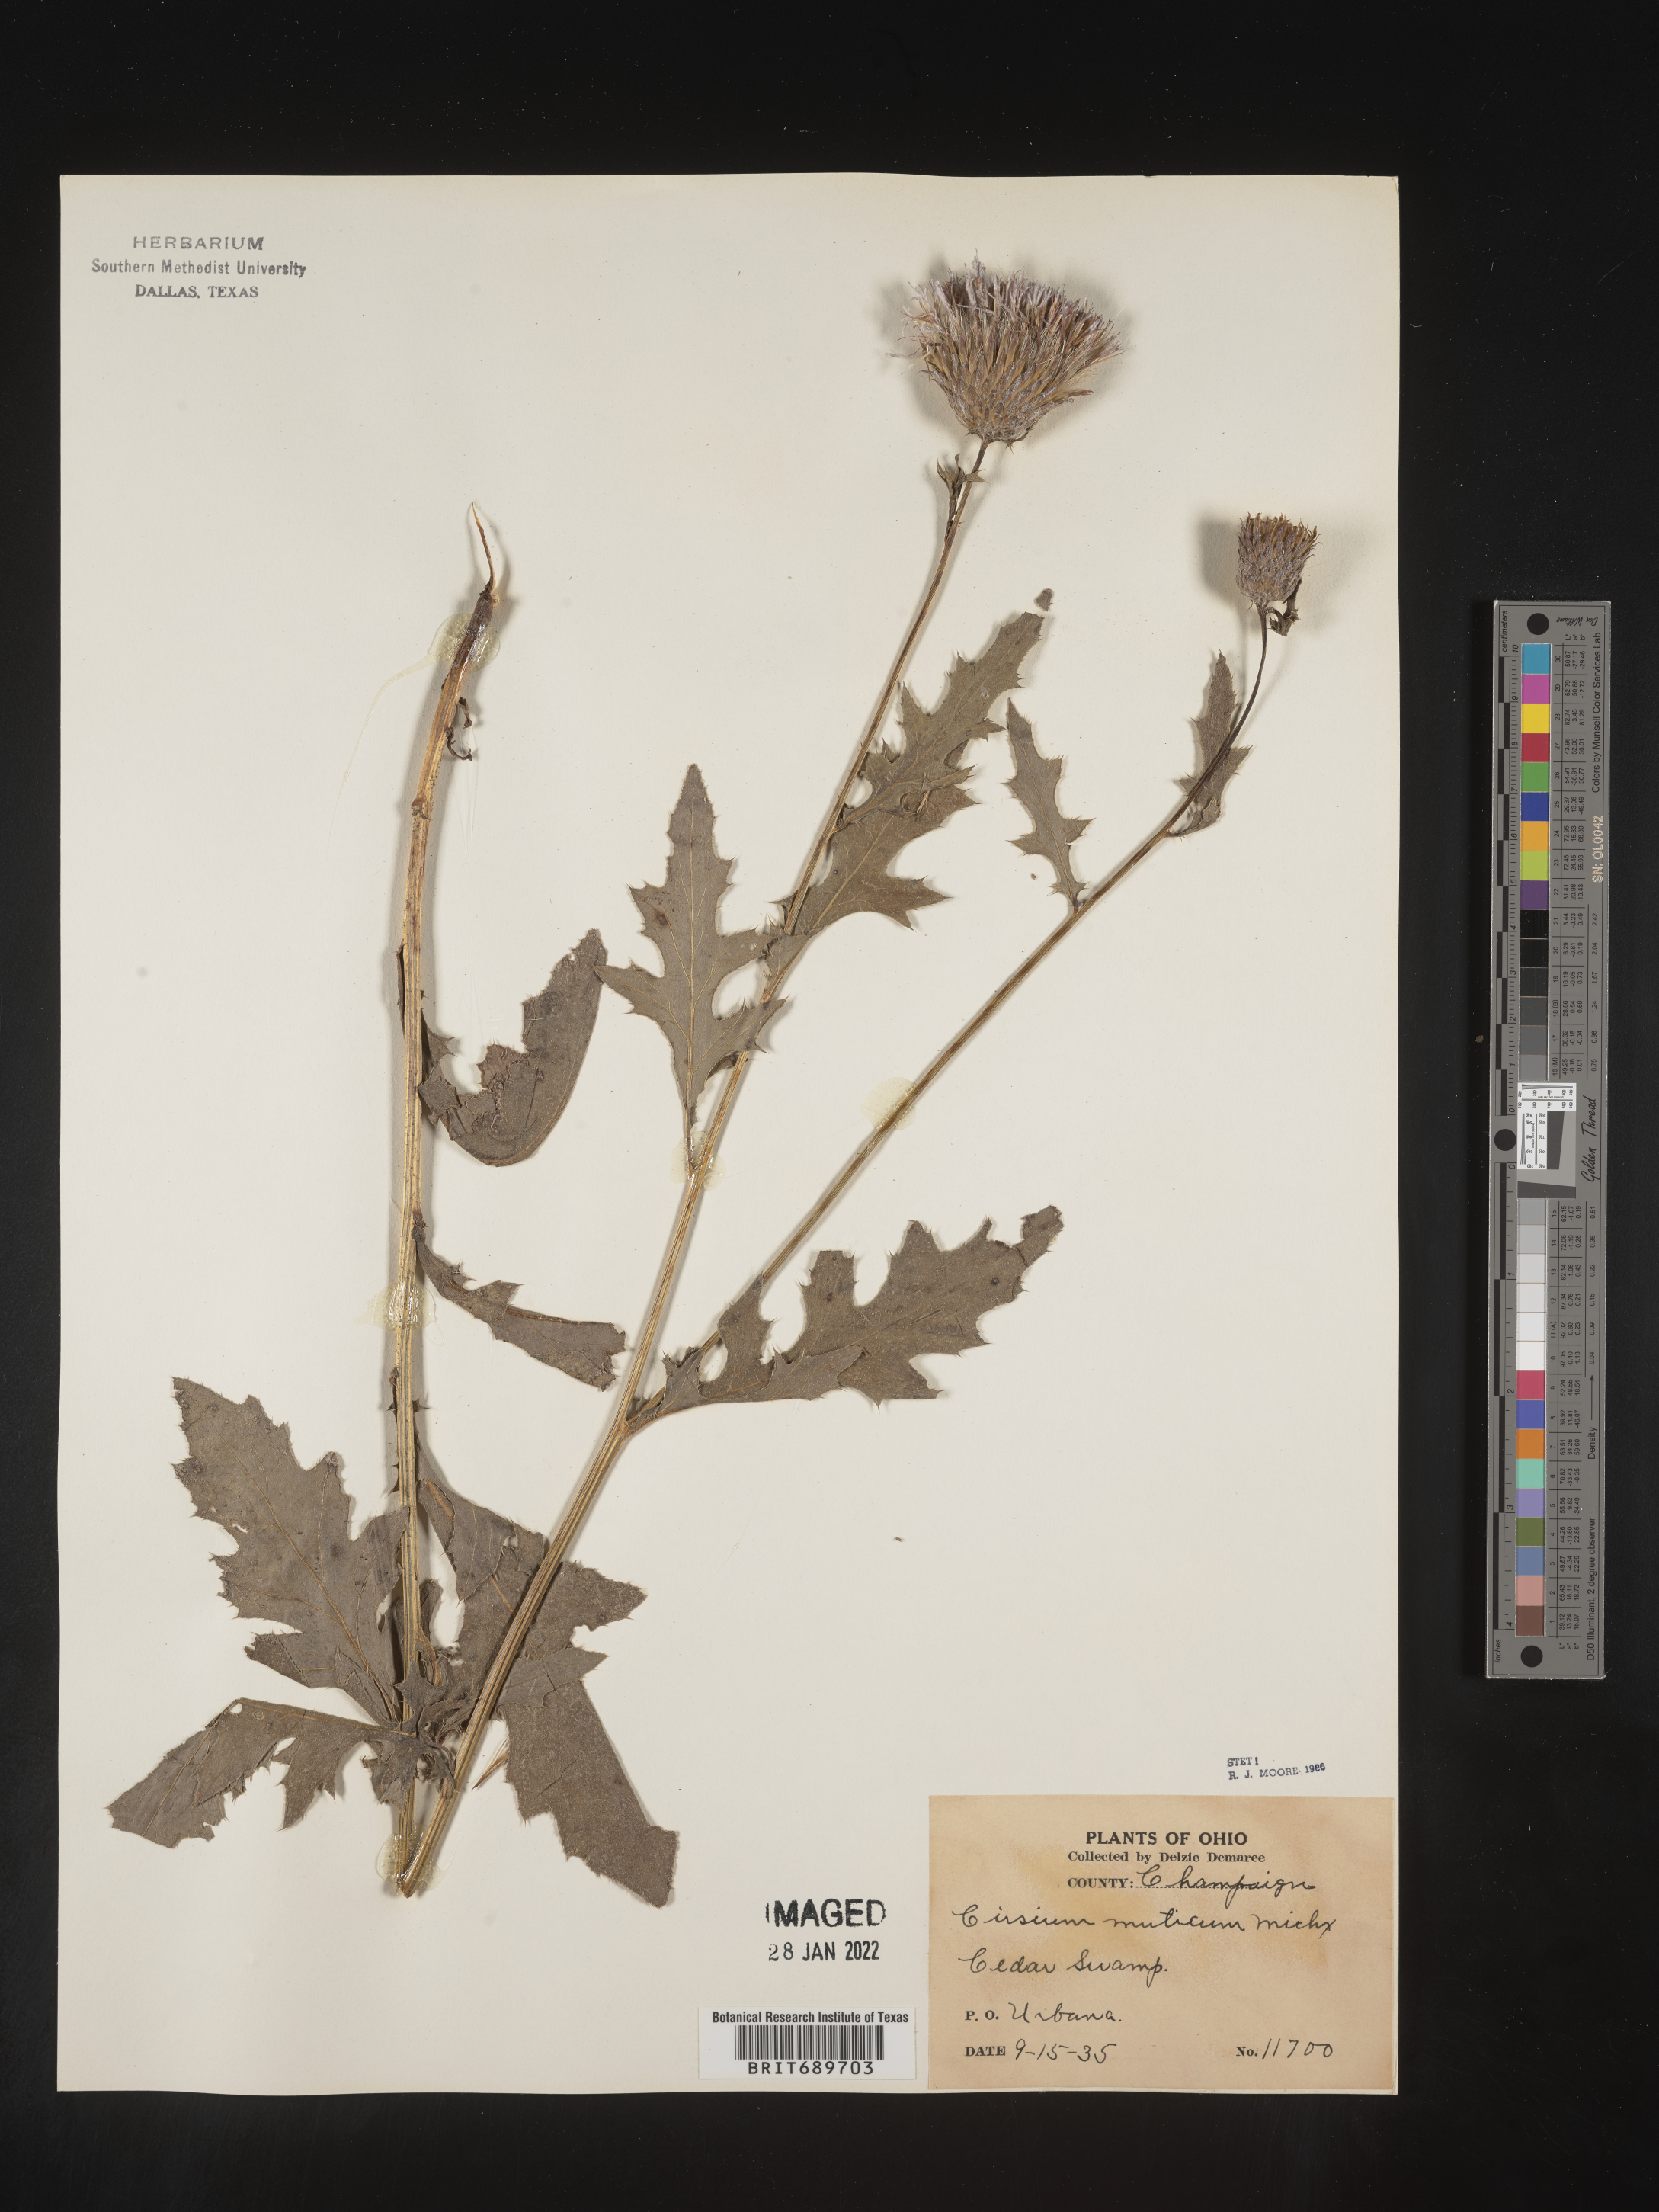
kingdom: Plantae
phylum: Tracheophyta
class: Magnoliopsida
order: Asterales
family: Asteraceae
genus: Cirsium
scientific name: Cirsium muticum
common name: Dunce-nettle
